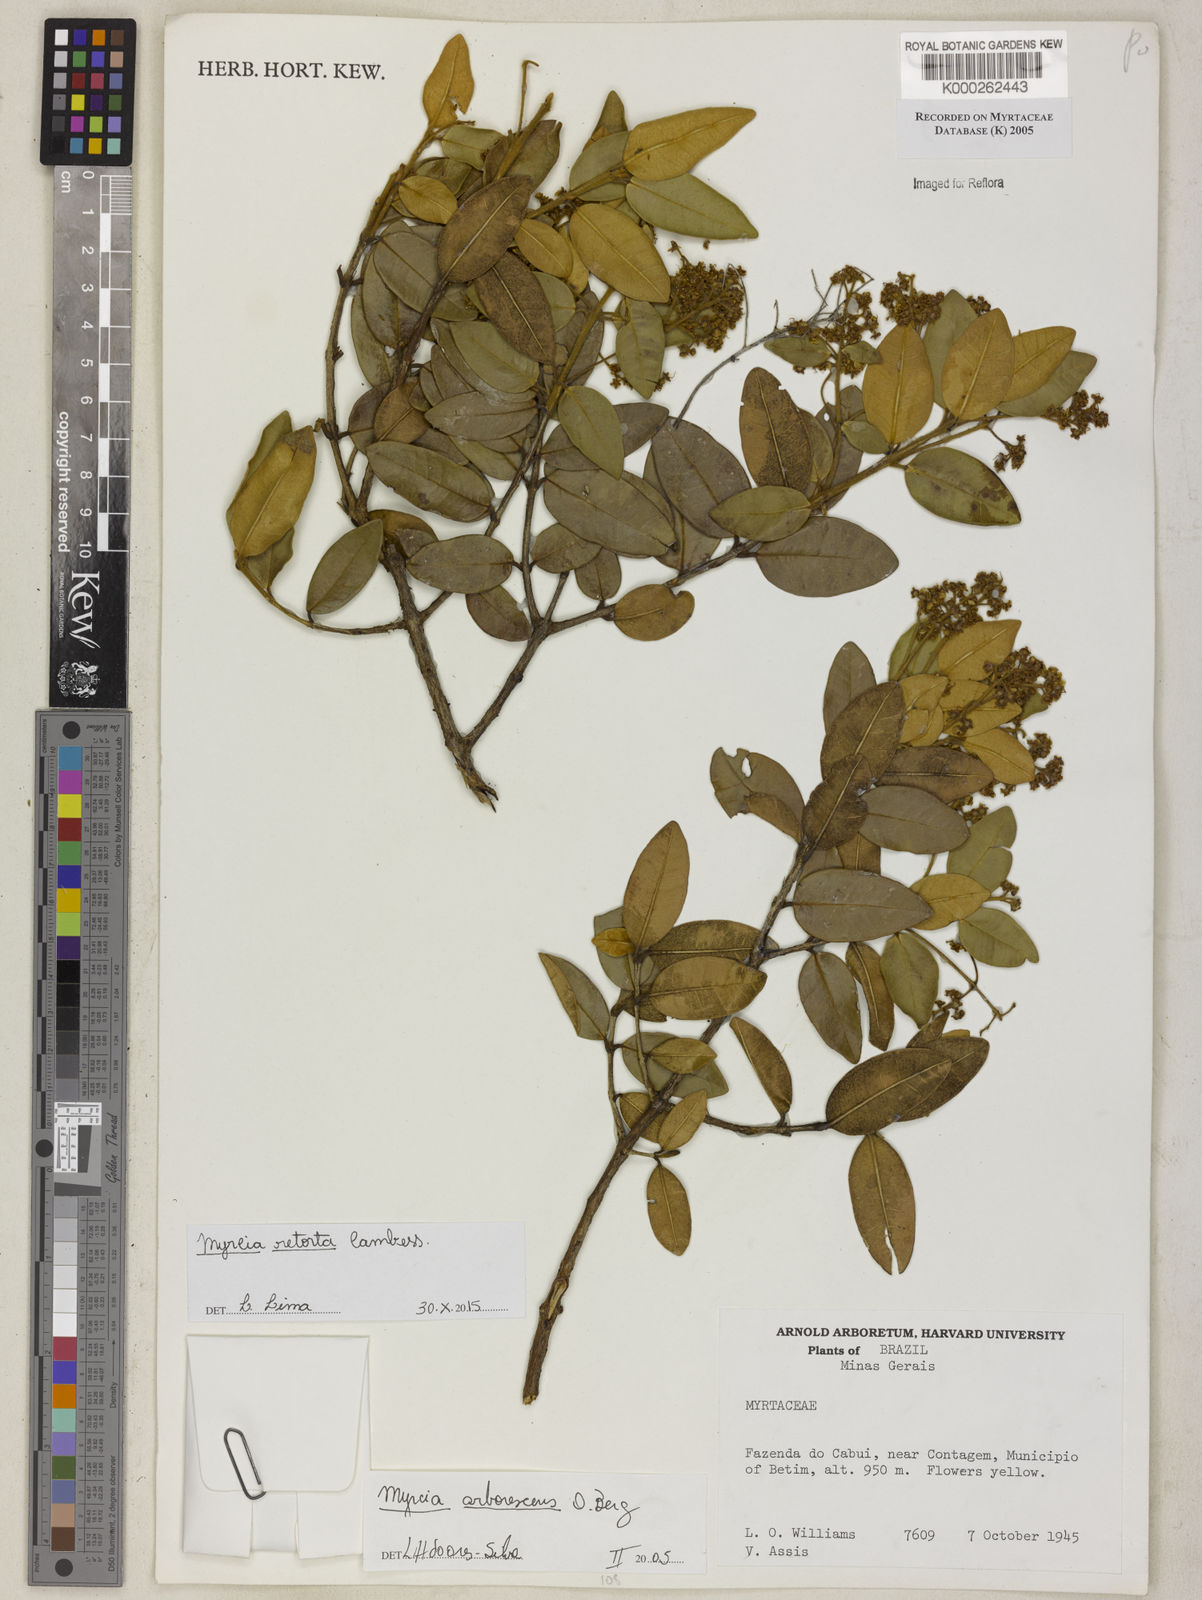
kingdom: Plantae
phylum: Tracheophyta
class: Magnoliopsida
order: Myrtales
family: Myrtaceae
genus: Myrcia
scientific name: Myrcia retorta
